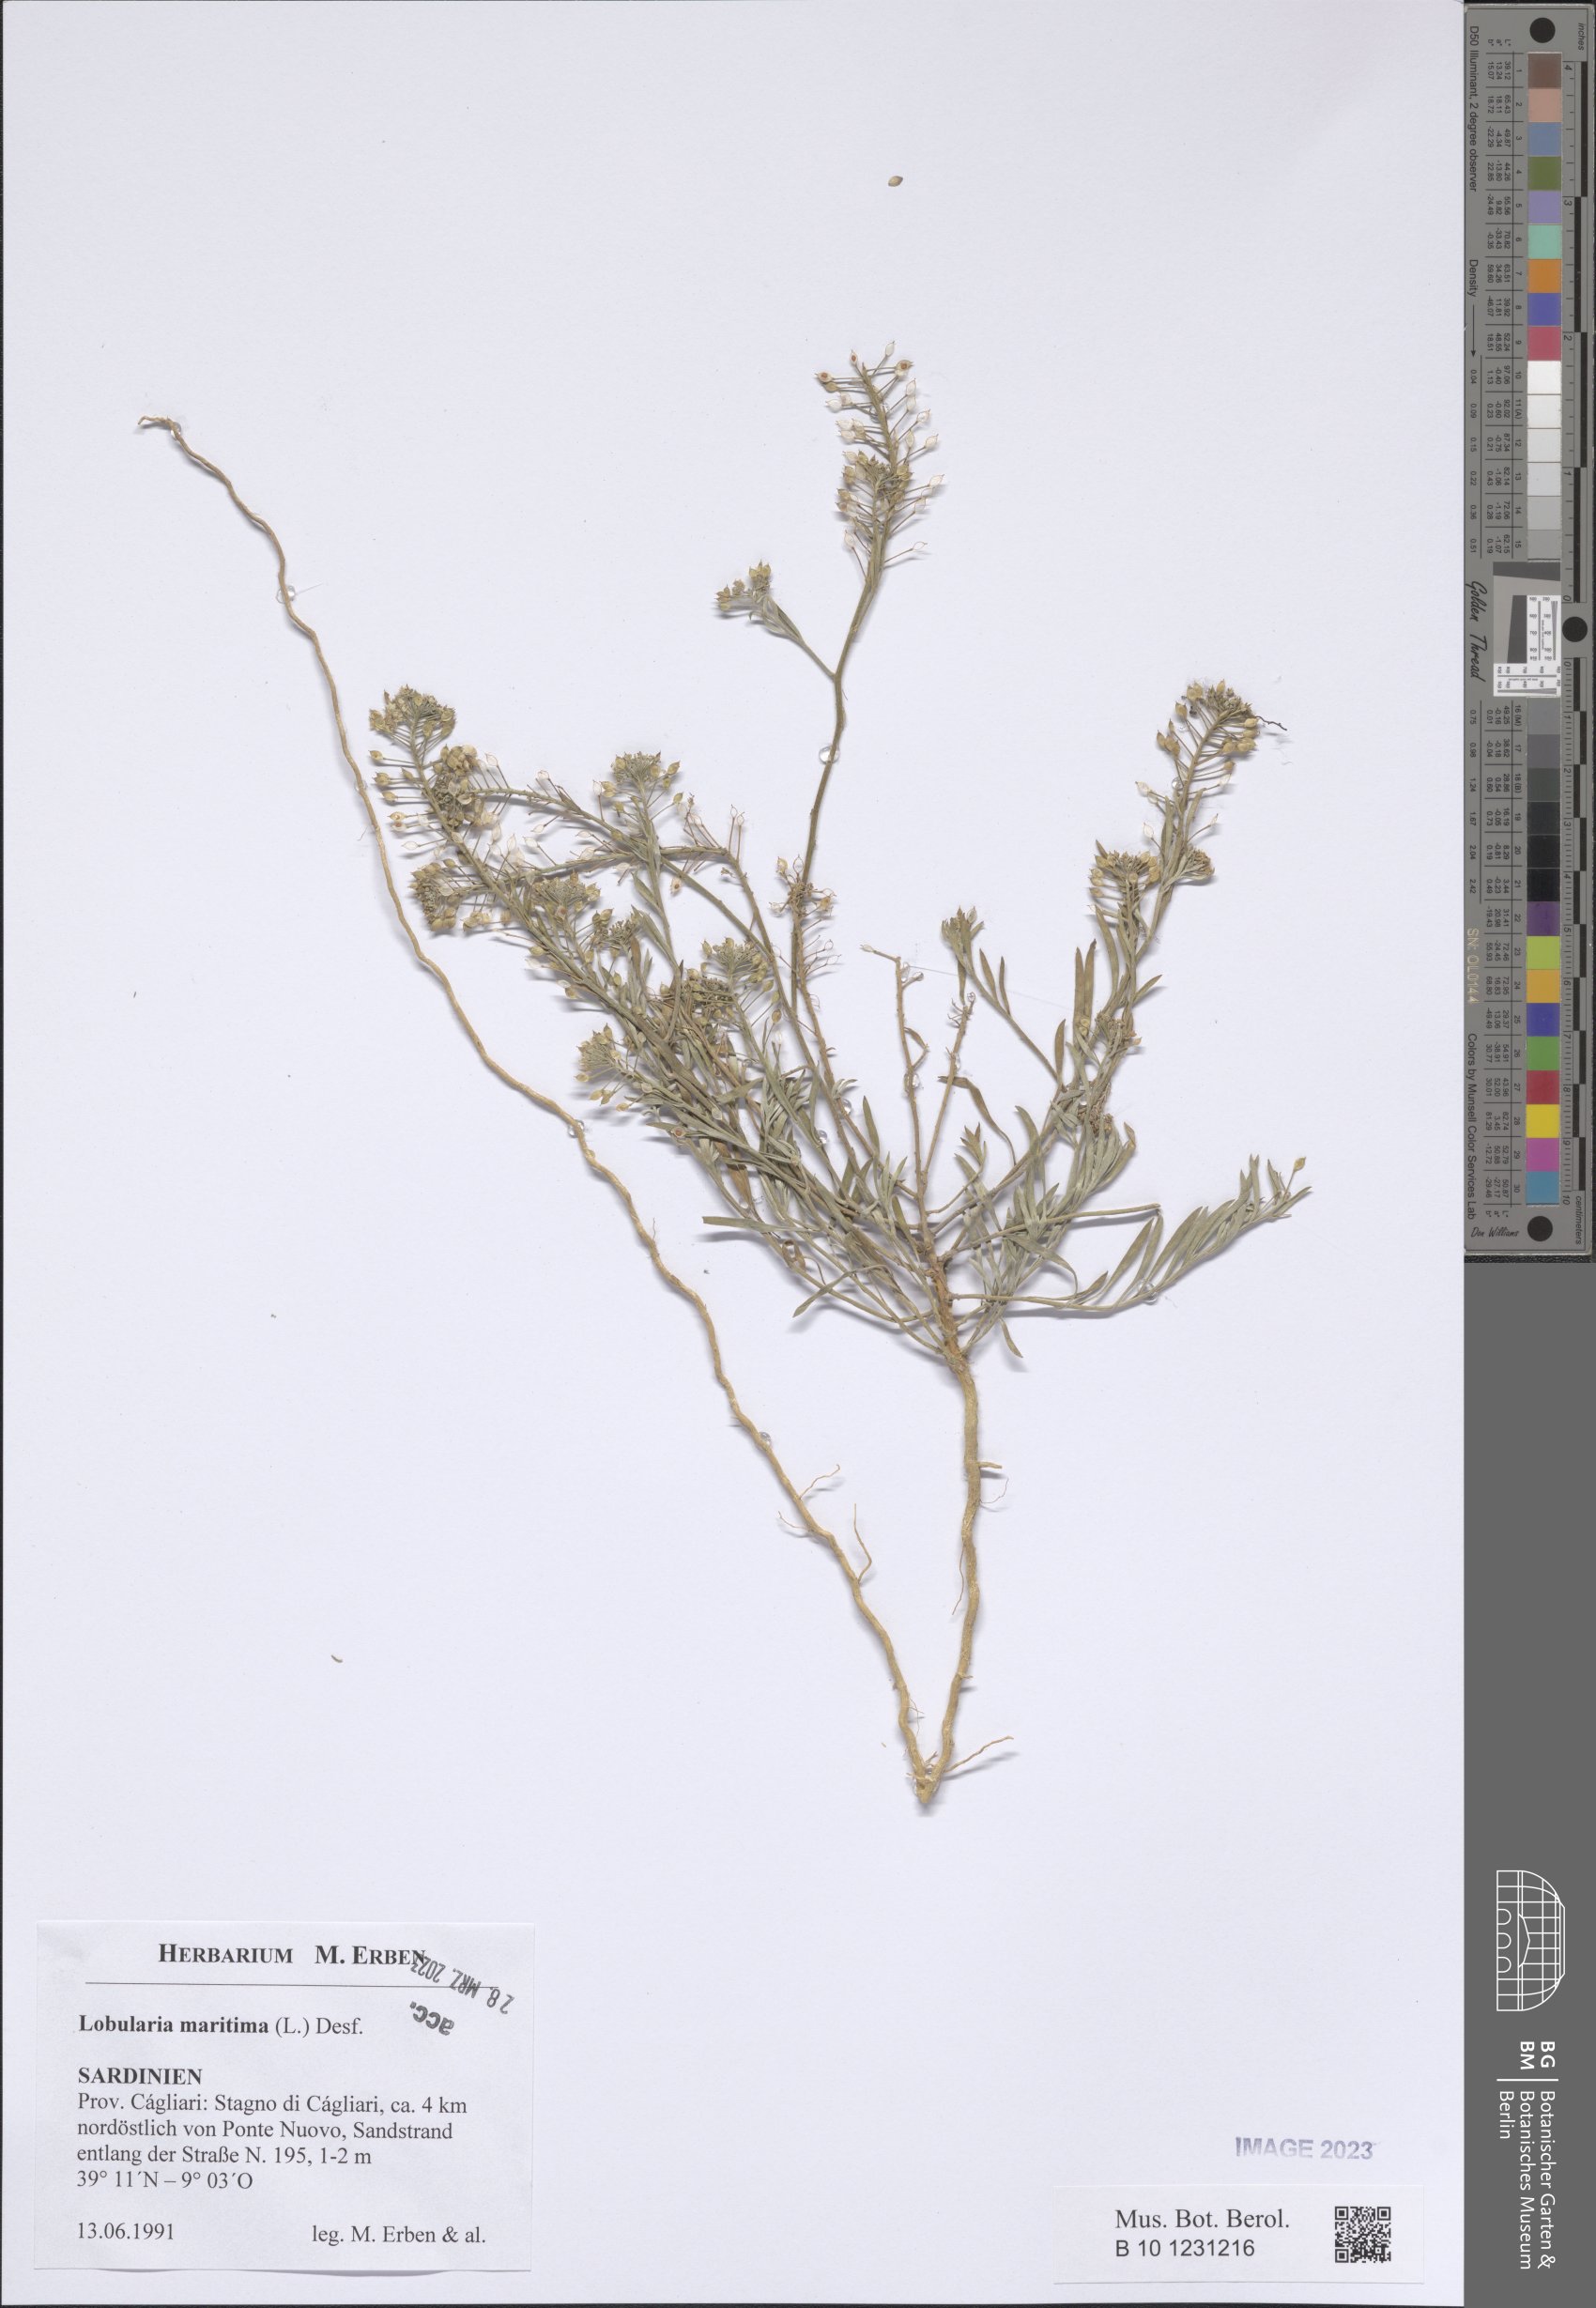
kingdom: Plantae
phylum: Tracheophyta
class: Magnoliopsida
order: Brassicales
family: Brassicaceae
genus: Lobularia
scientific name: Lobularia maritima
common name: Sweet alison
